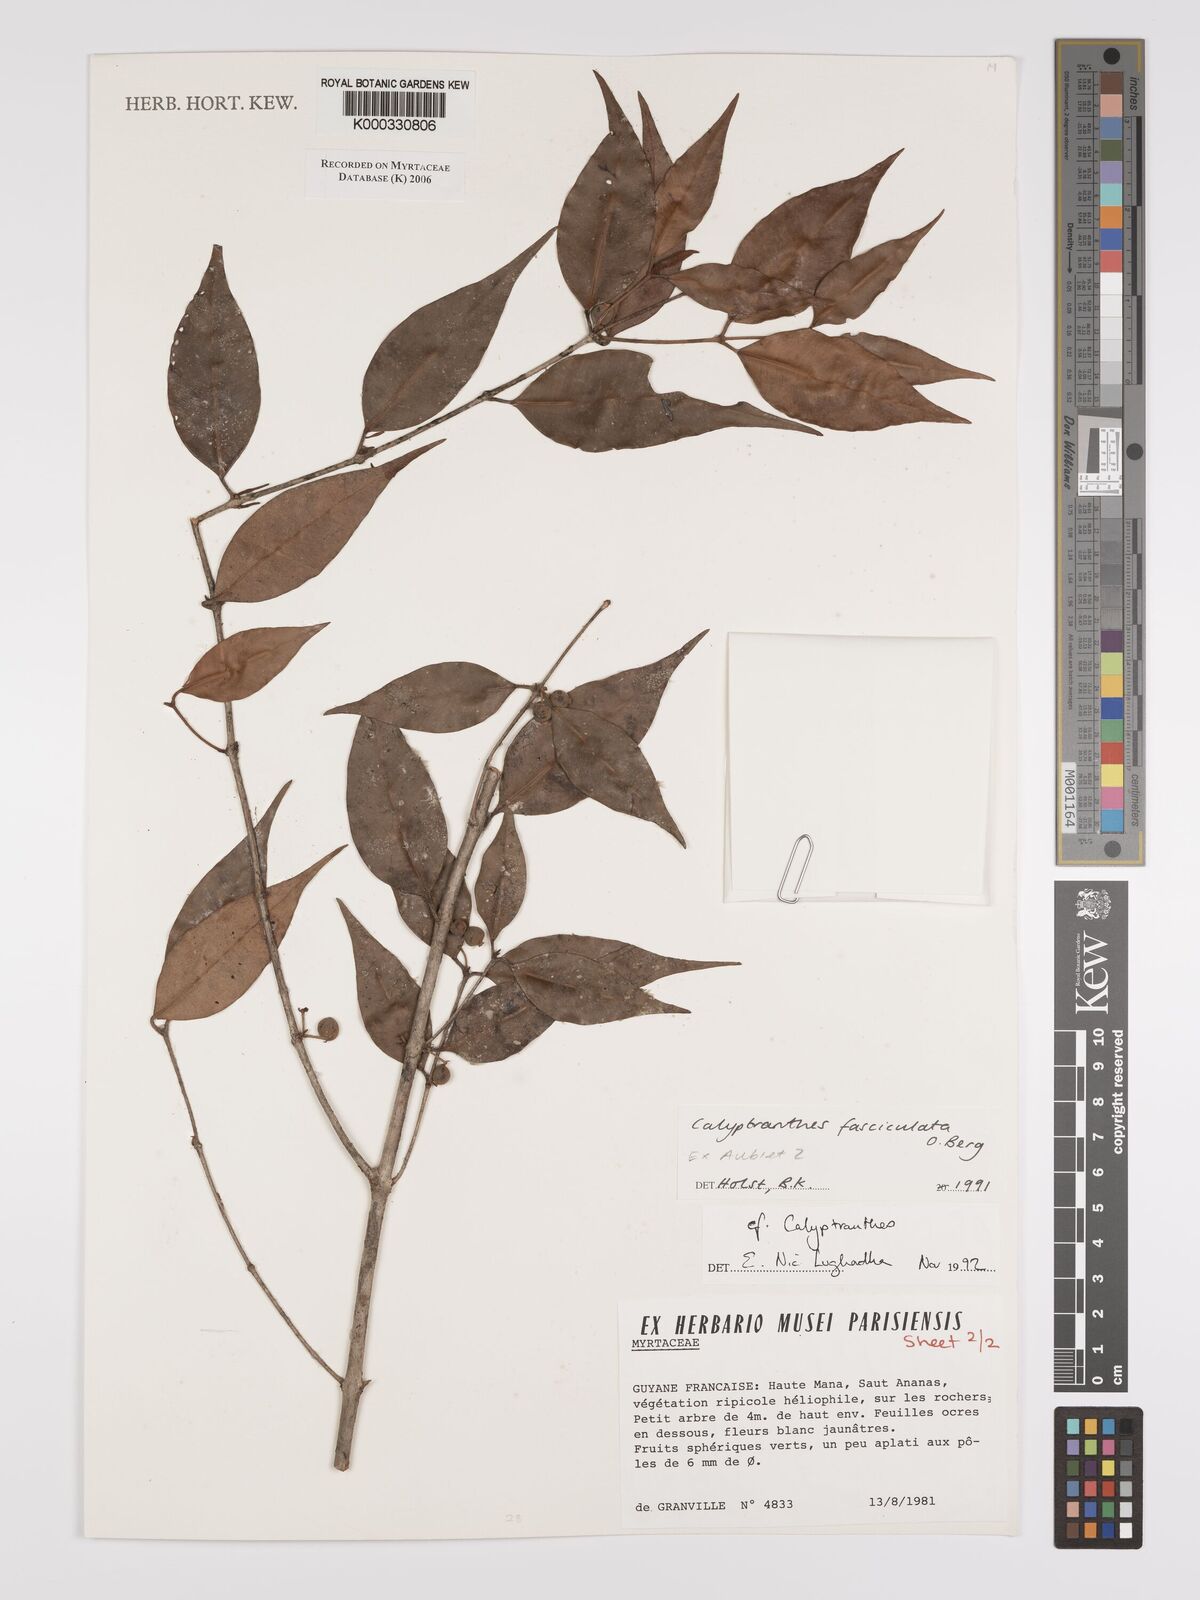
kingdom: Plantae
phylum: Tracheophyta
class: Magnoliopsida
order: Myrtales
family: Myrtaceae
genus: Myrcia
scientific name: Myrcia fasciculata
